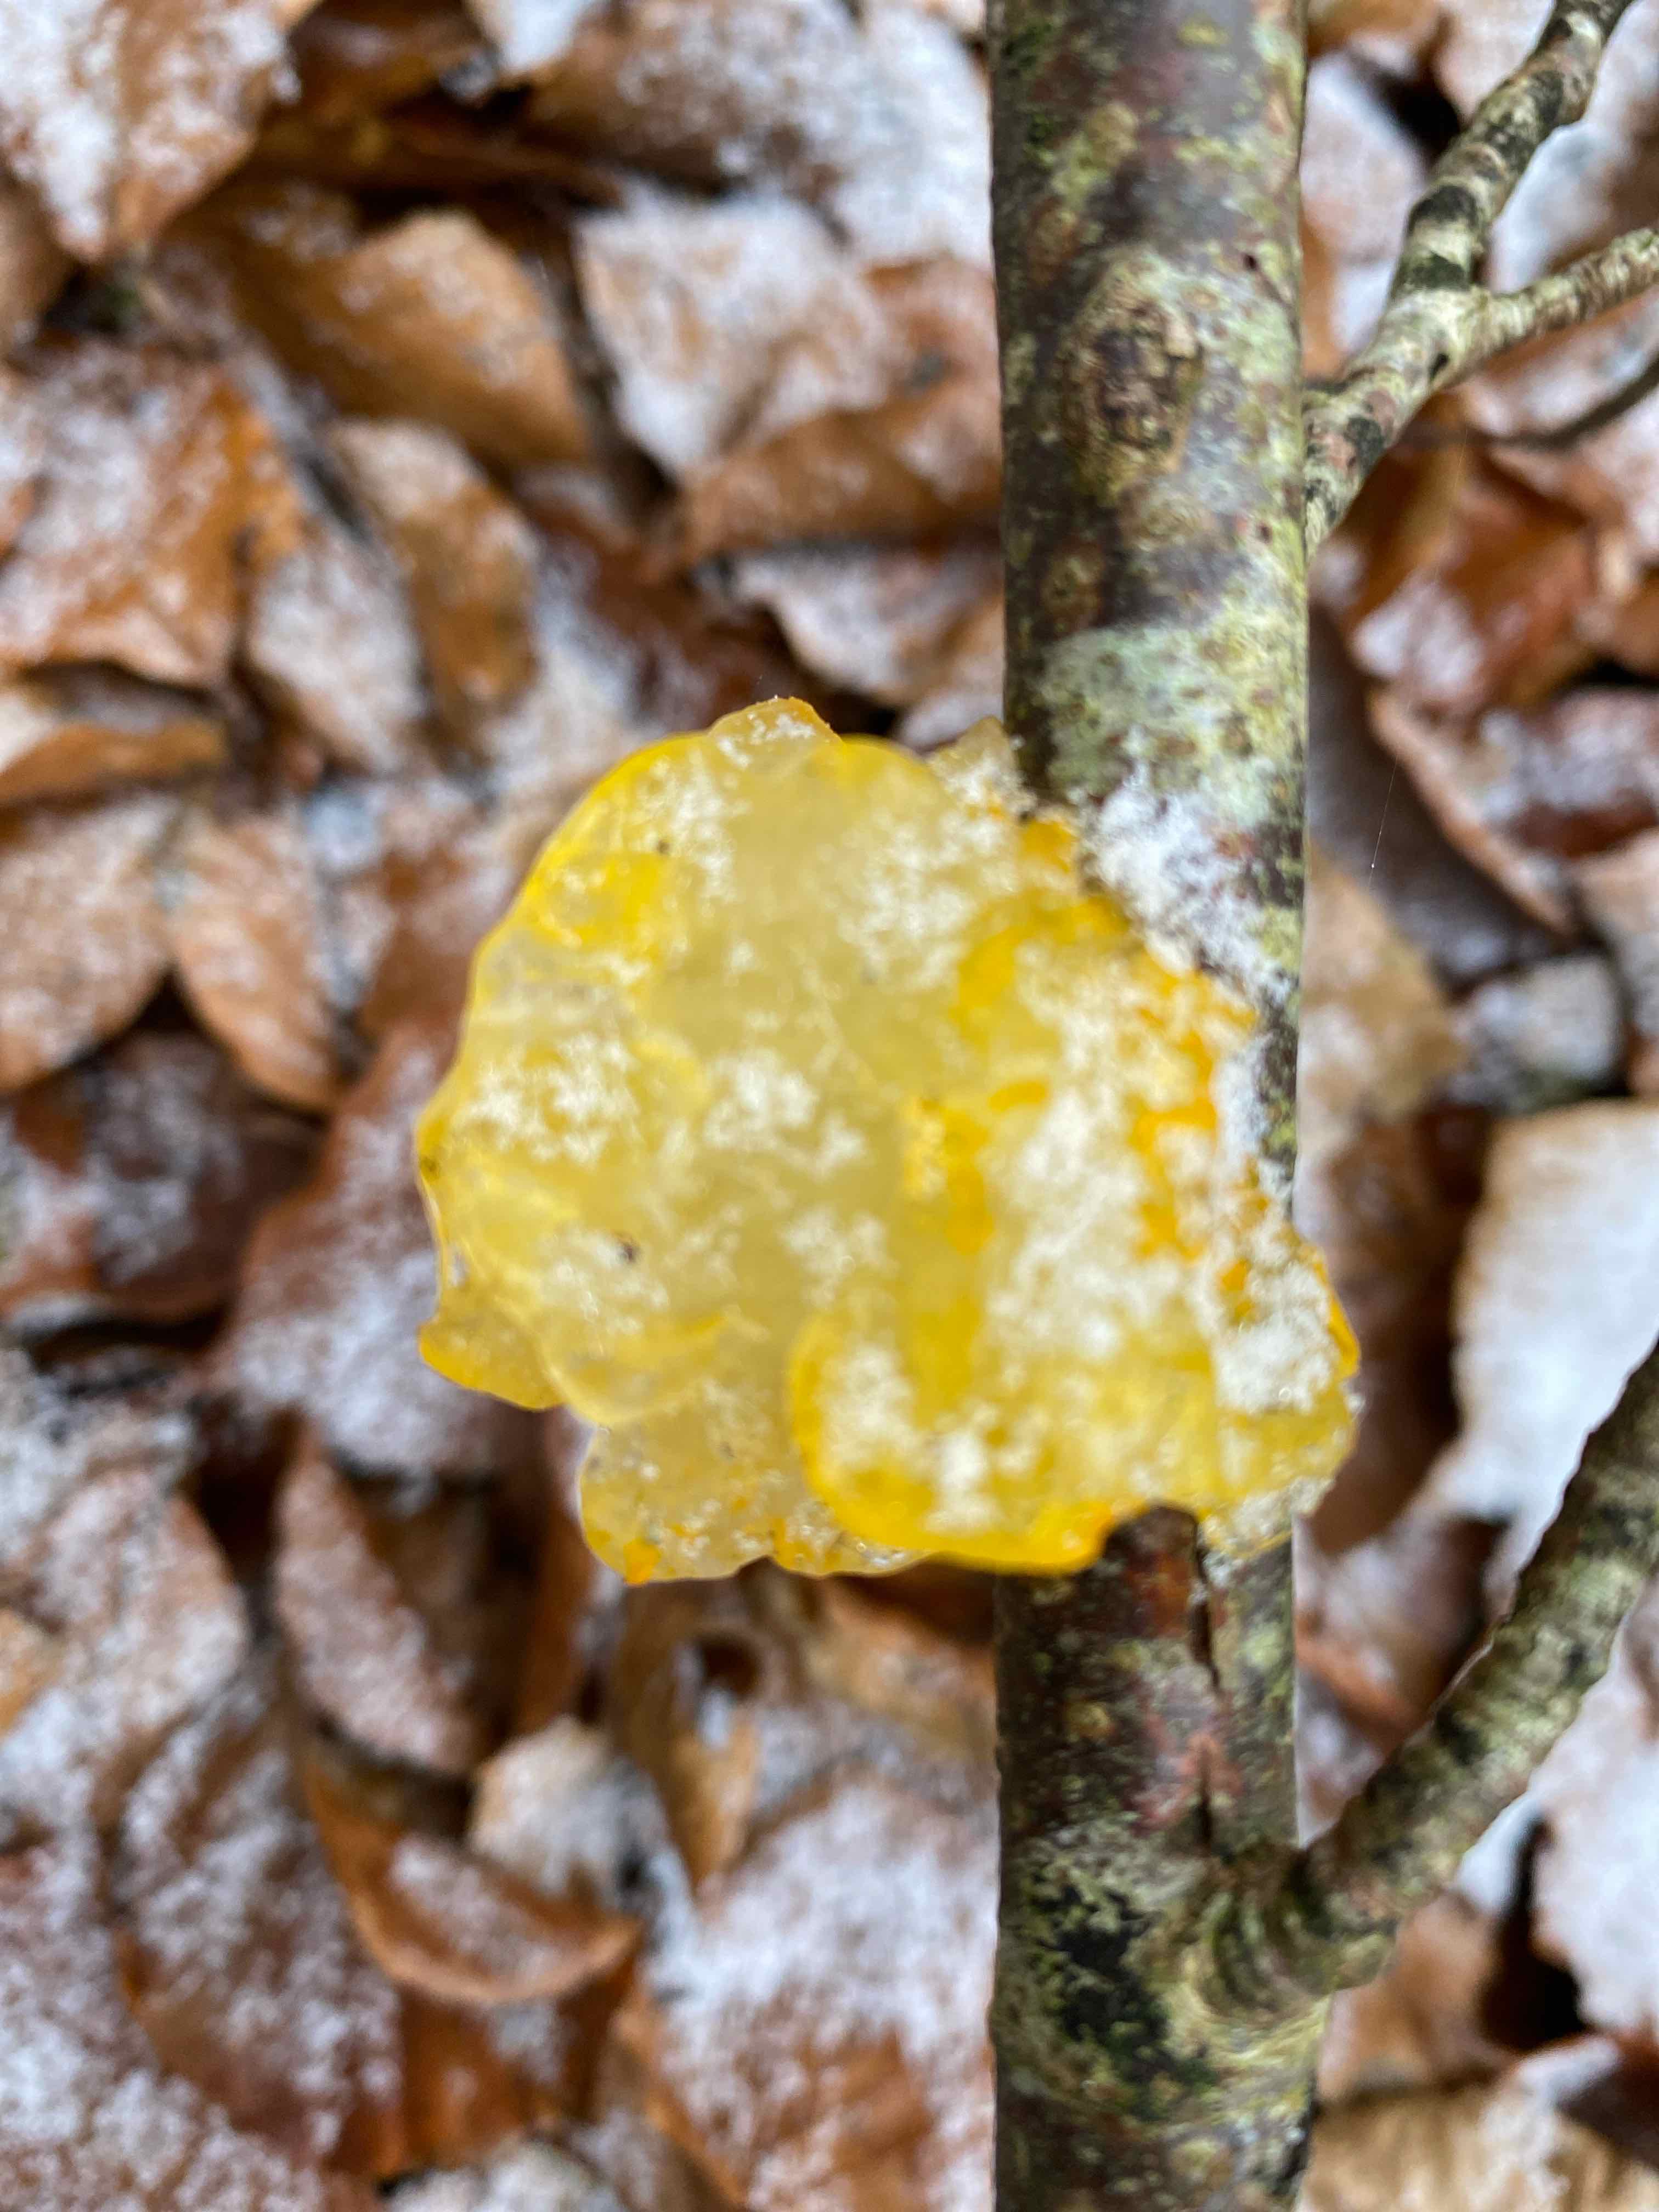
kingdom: Fungi
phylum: Basidiomycota
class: Tremellomycetes
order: Tremellales
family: Tremellaceae
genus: Tremella
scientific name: Tremella mesenterica
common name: gul bævresvamp
